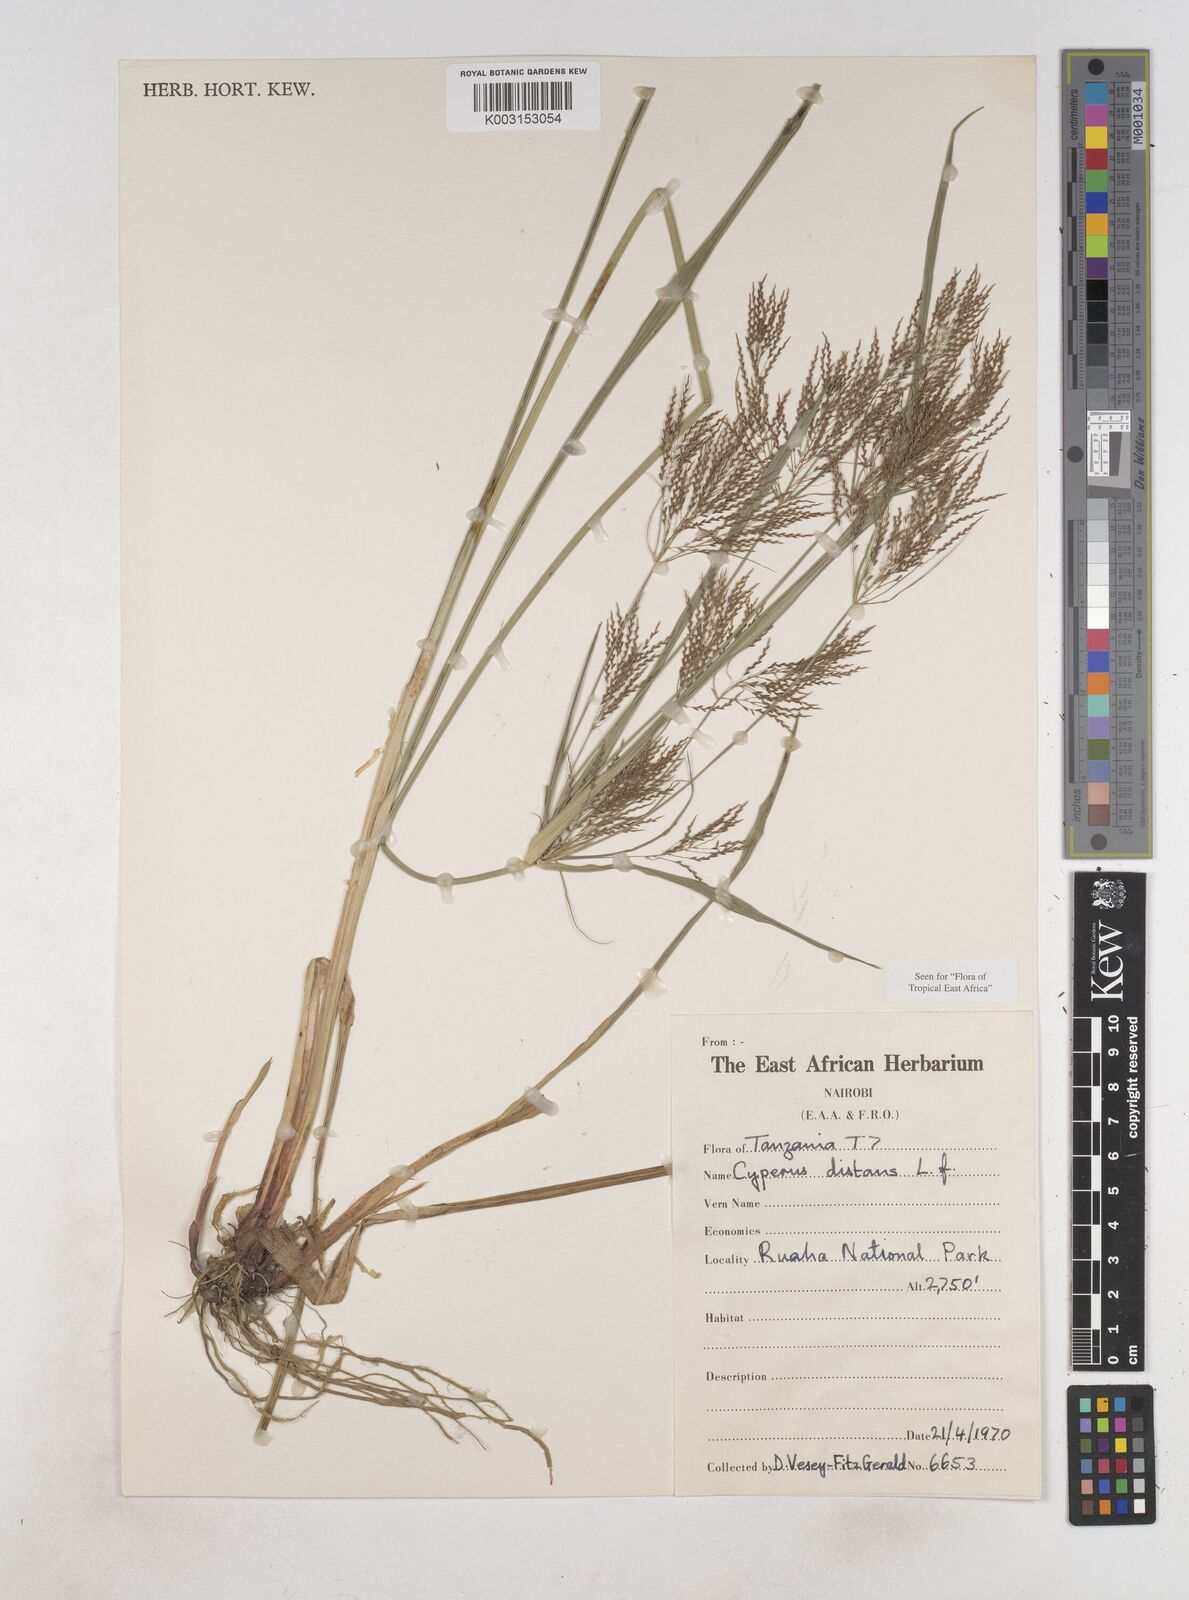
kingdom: Plantae
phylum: Tracheophyta
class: Liliopsida
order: Poales
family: Cyperaceae
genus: Cyperus
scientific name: Cyperus distans
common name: Slender cyperus
